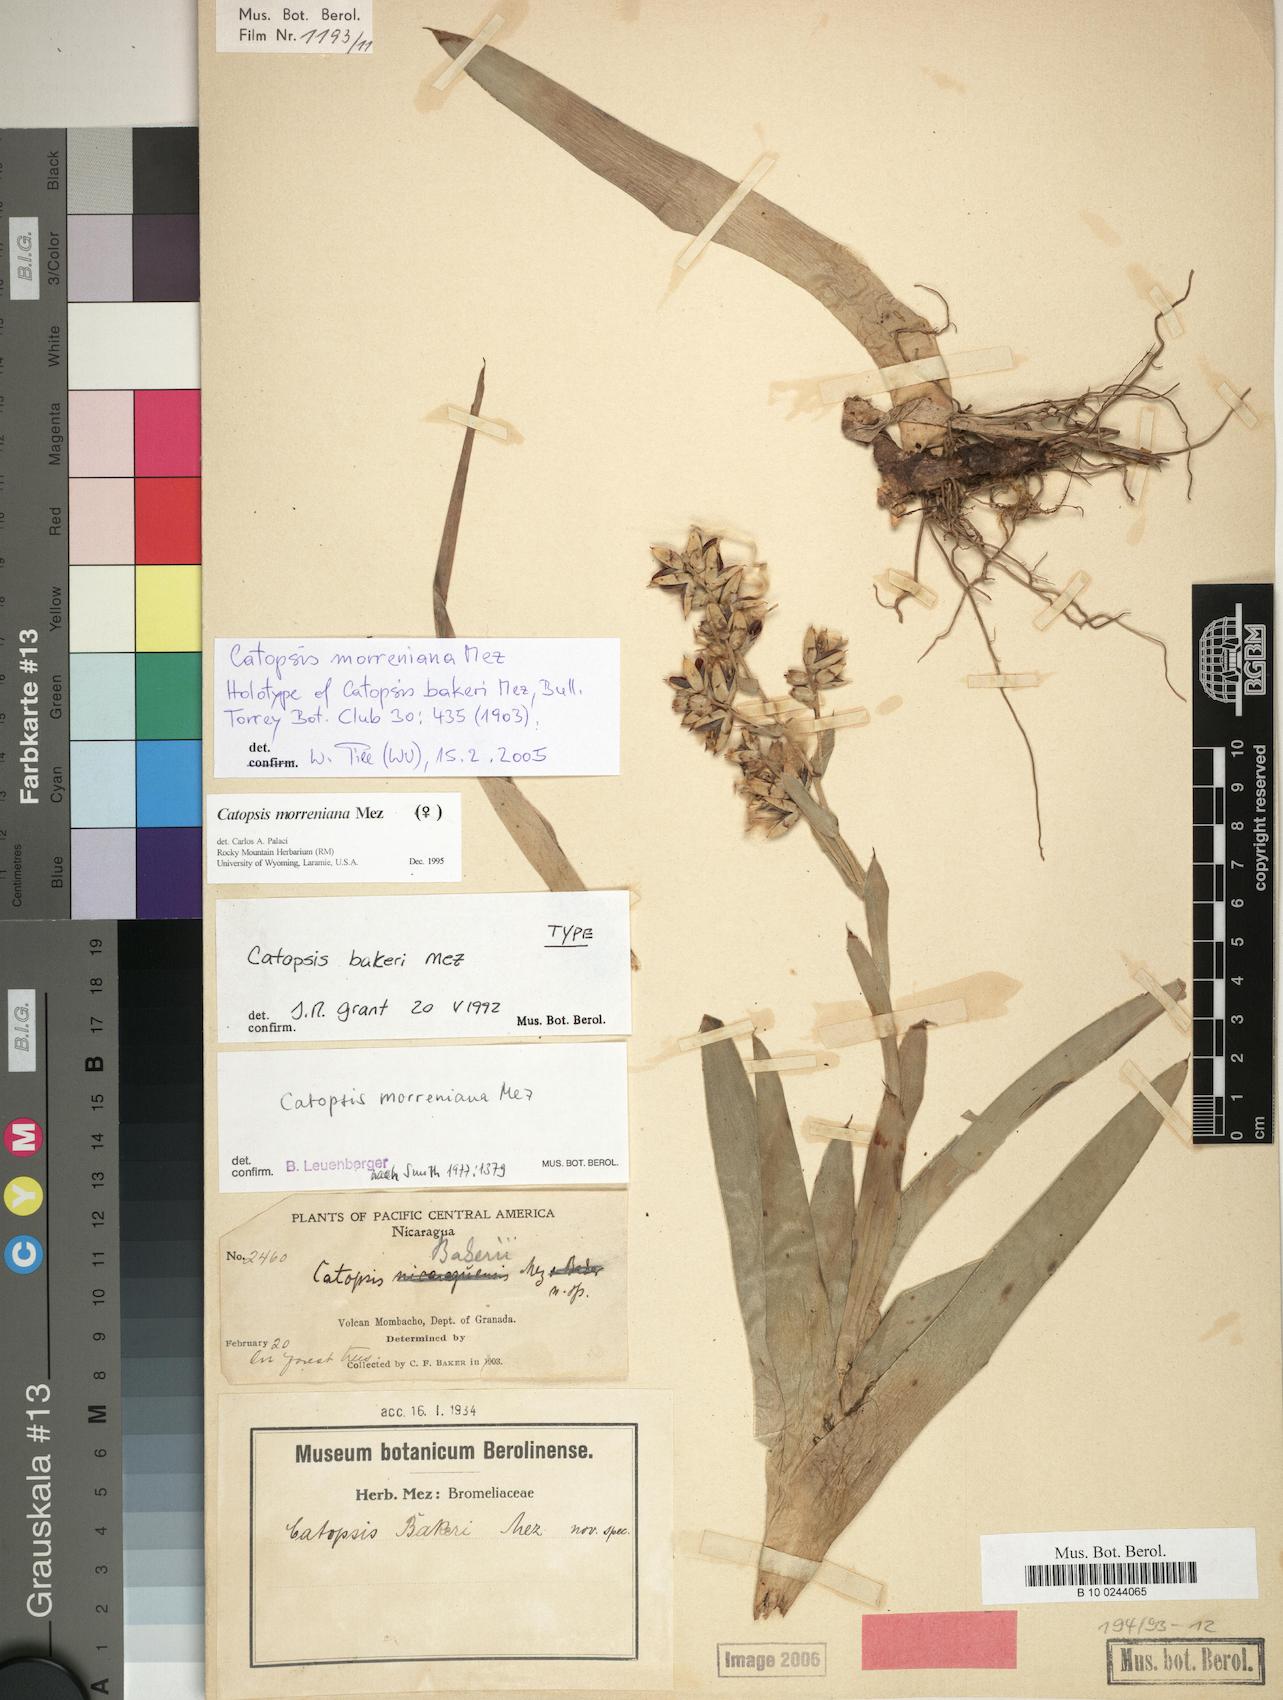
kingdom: Plantae
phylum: Tracheophyta
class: Liliopsida
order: Poales
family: Bromeliaceae
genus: Catopsis
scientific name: Catopsis morreniana
